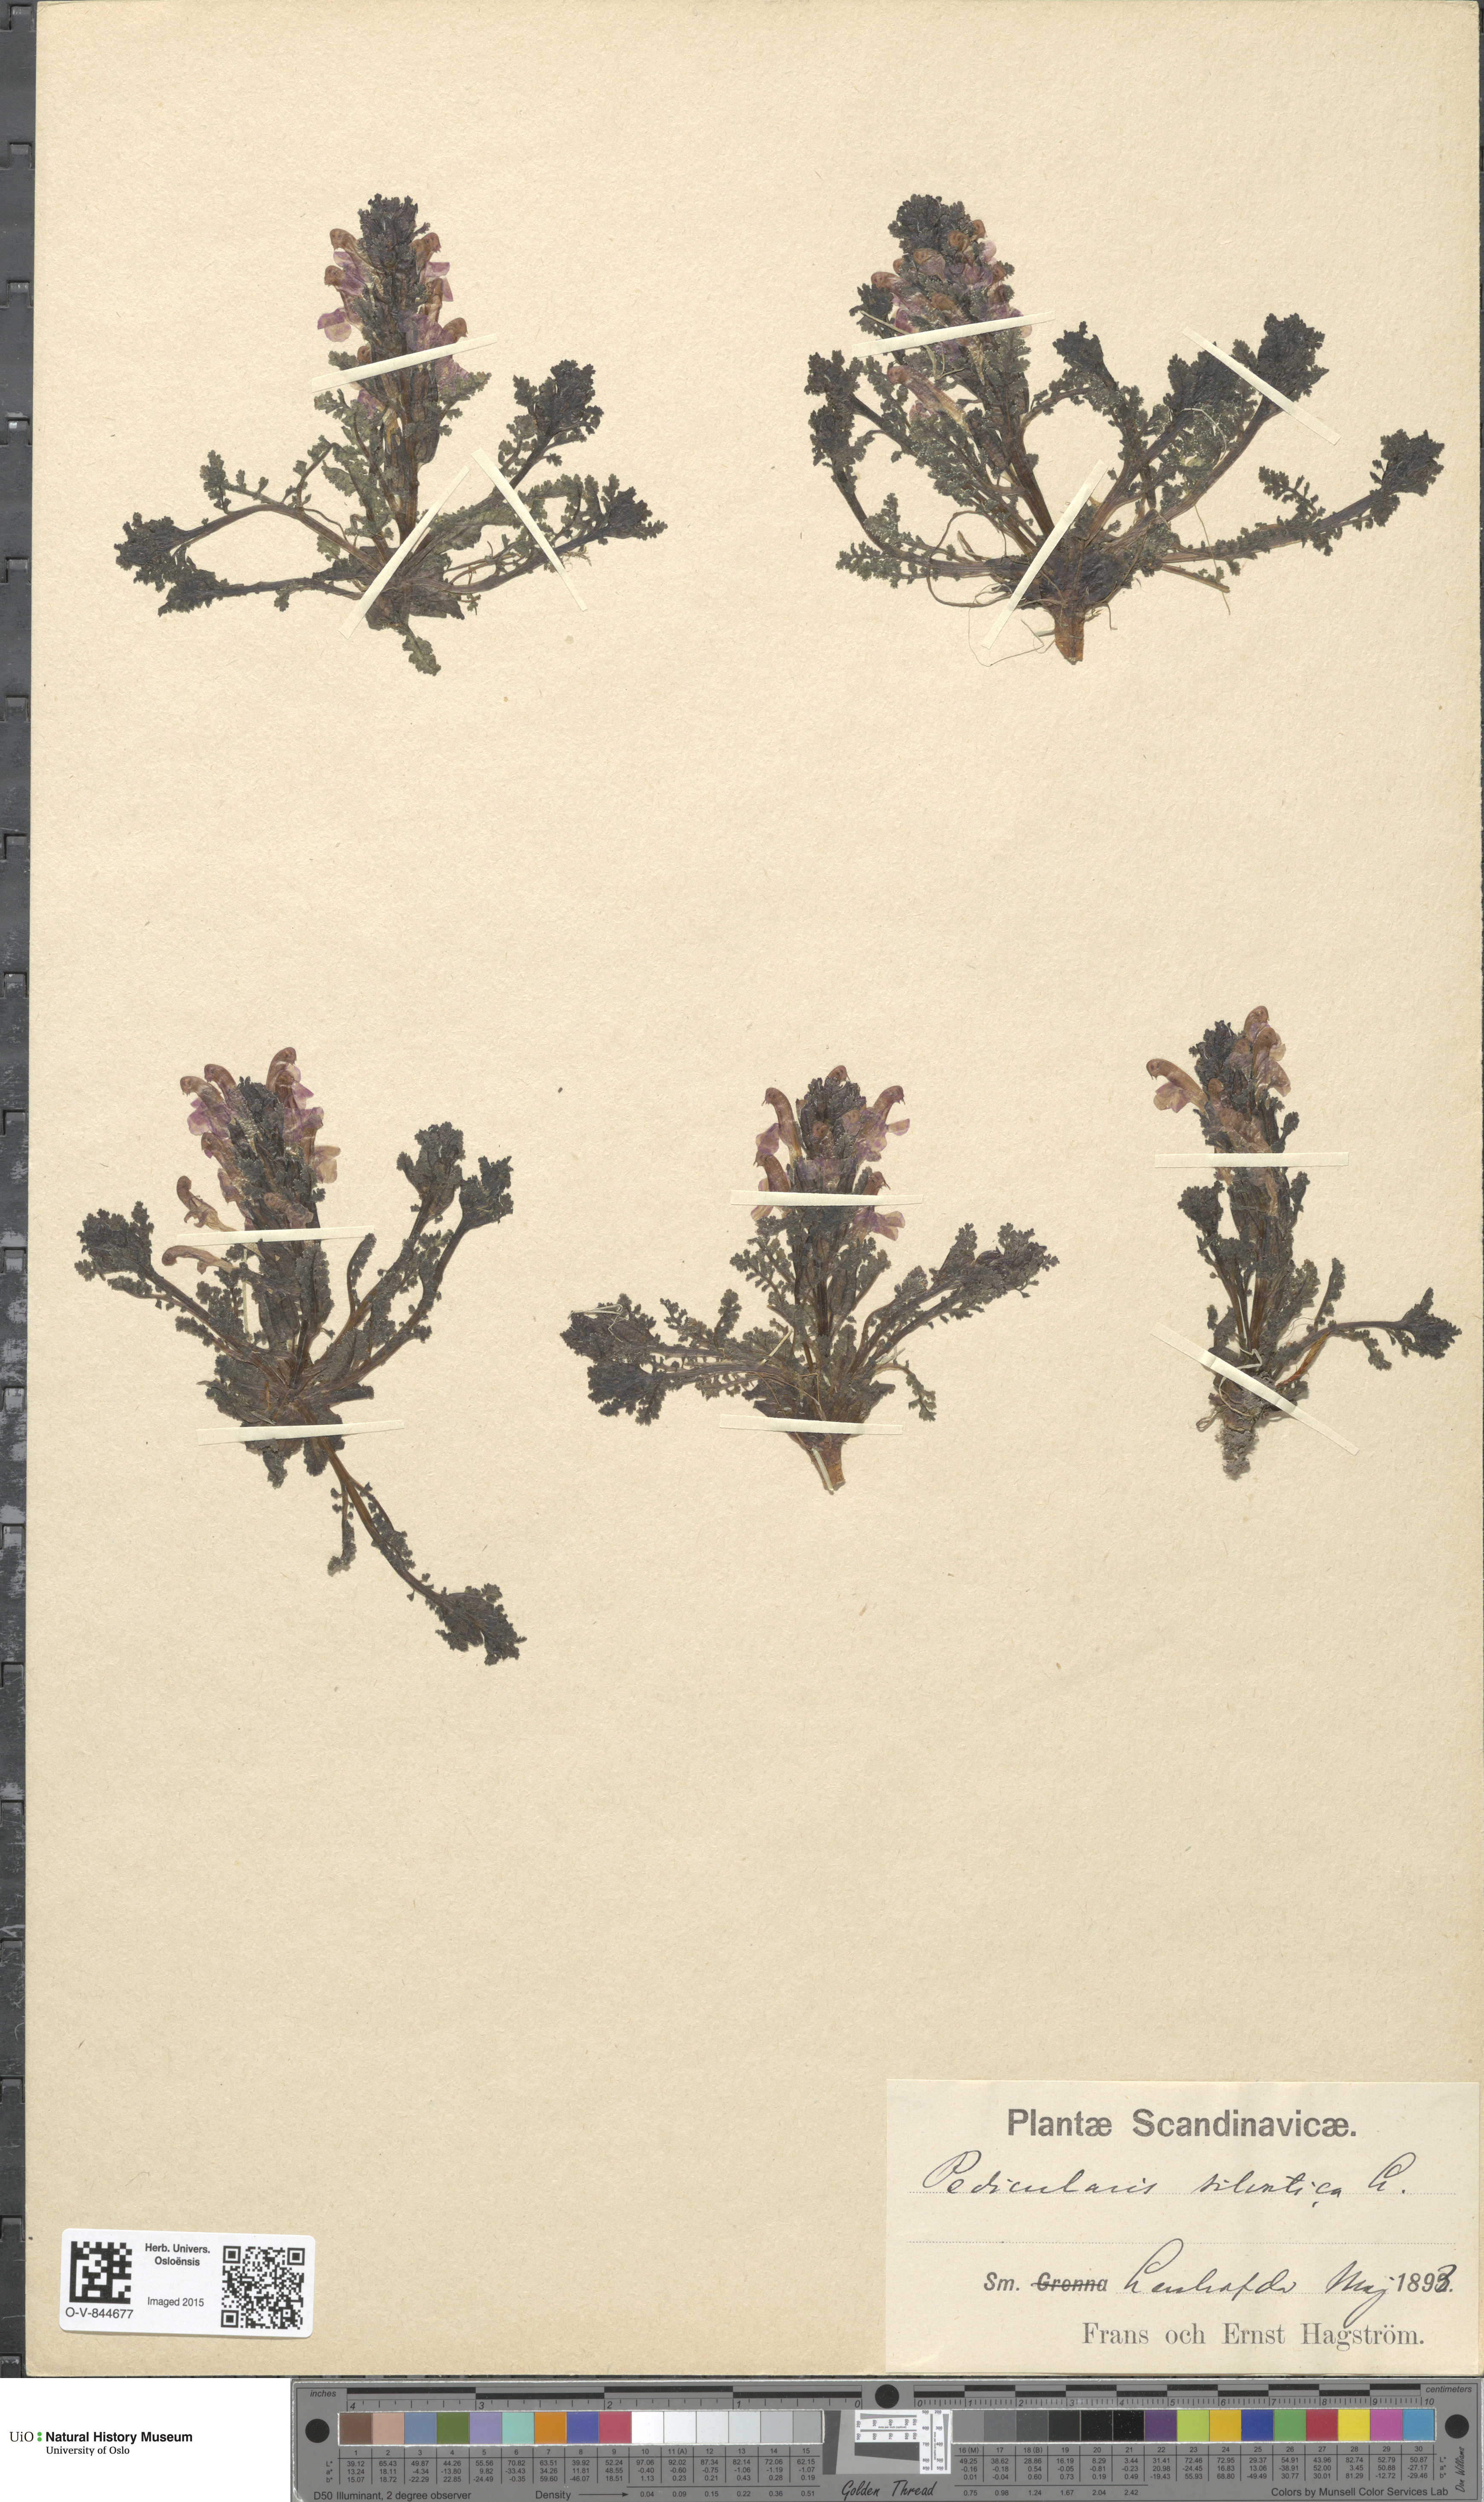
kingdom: Plantae
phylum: Tracheophyta
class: Magnoliopsida
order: Lamiales
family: Orobanchaceae
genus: Pedicularis
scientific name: Pedicularis sylvatica
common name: Lousewort
